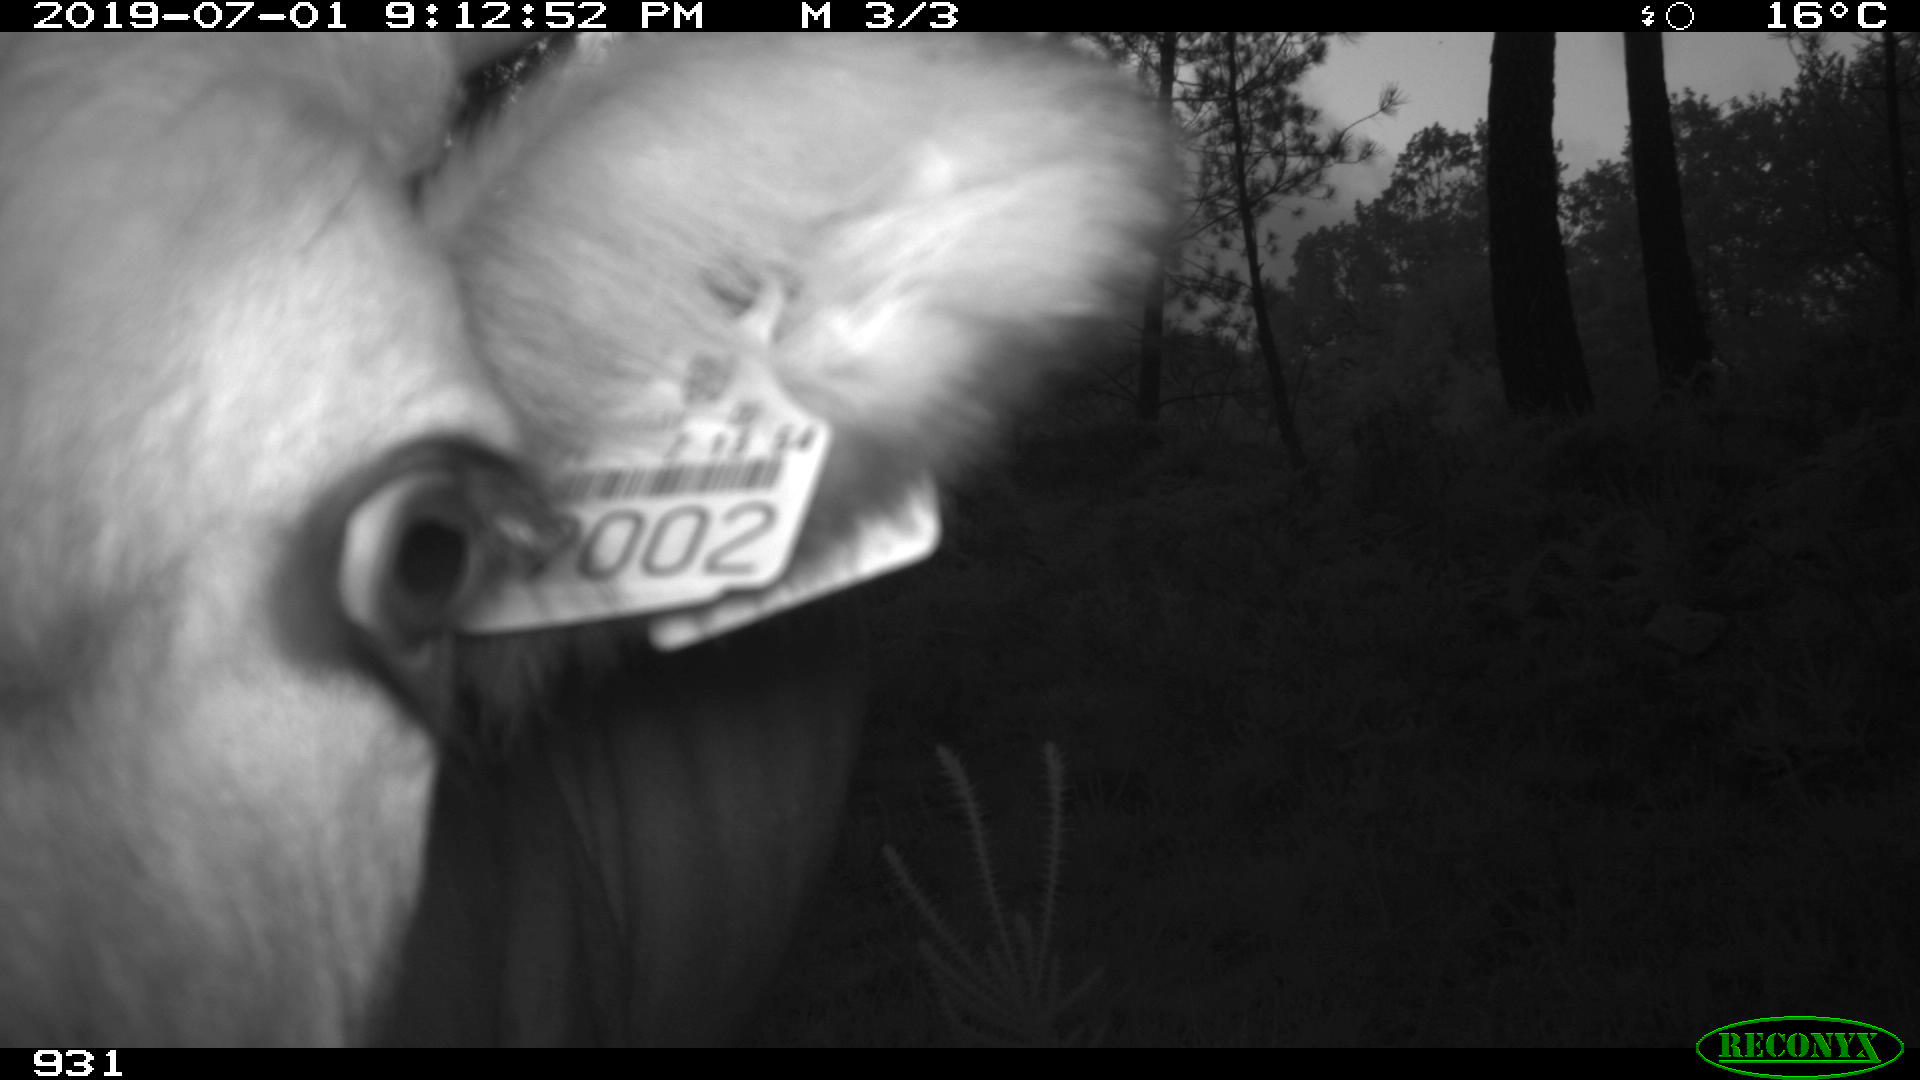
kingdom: Animalia
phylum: Chordata
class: Mammalia
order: Artiodactyla
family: Bovidae
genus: Bos
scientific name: Bos taurus
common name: Domesticated cattle
